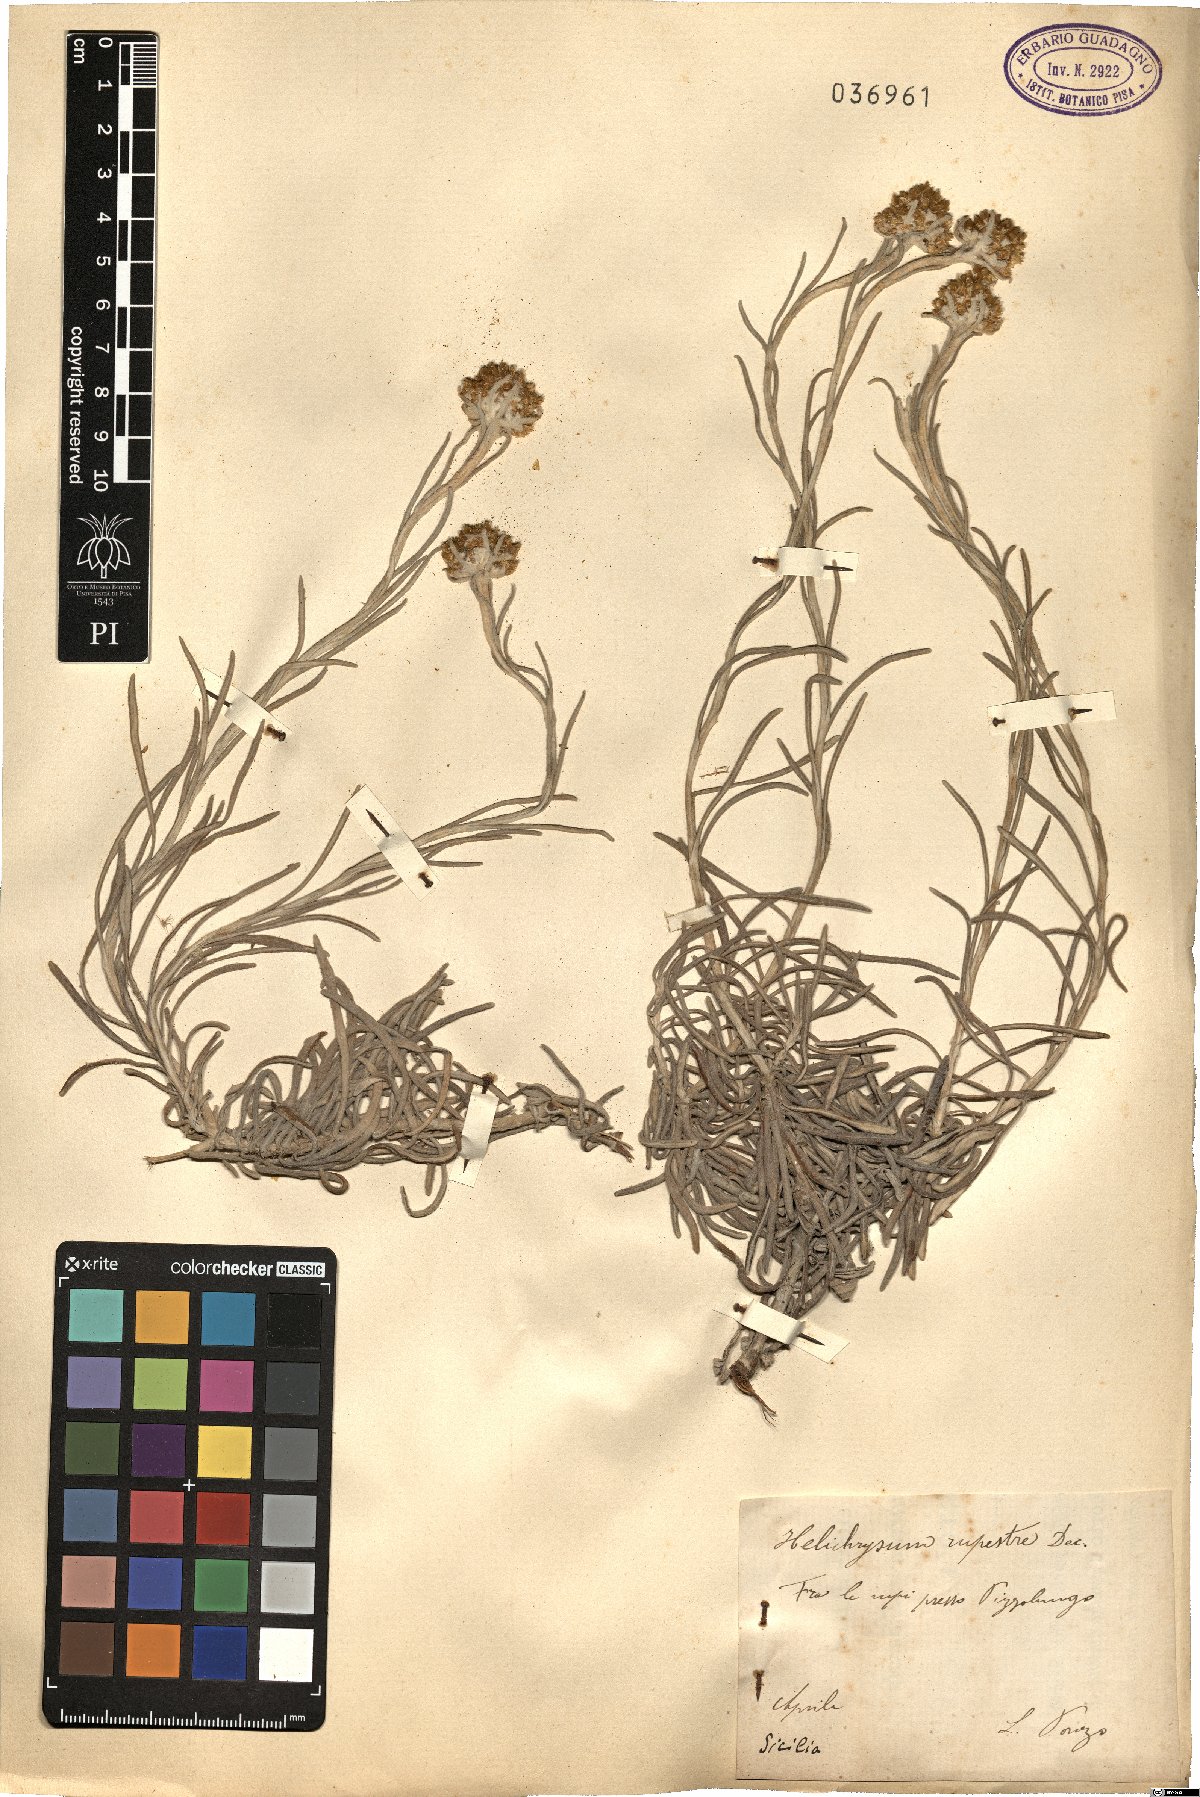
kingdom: Plantae
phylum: Tracheophyta
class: Magnoliopsida
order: Asterales
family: Asteraceae
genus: Helichrysum
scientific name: Helichrysum panormitanum
